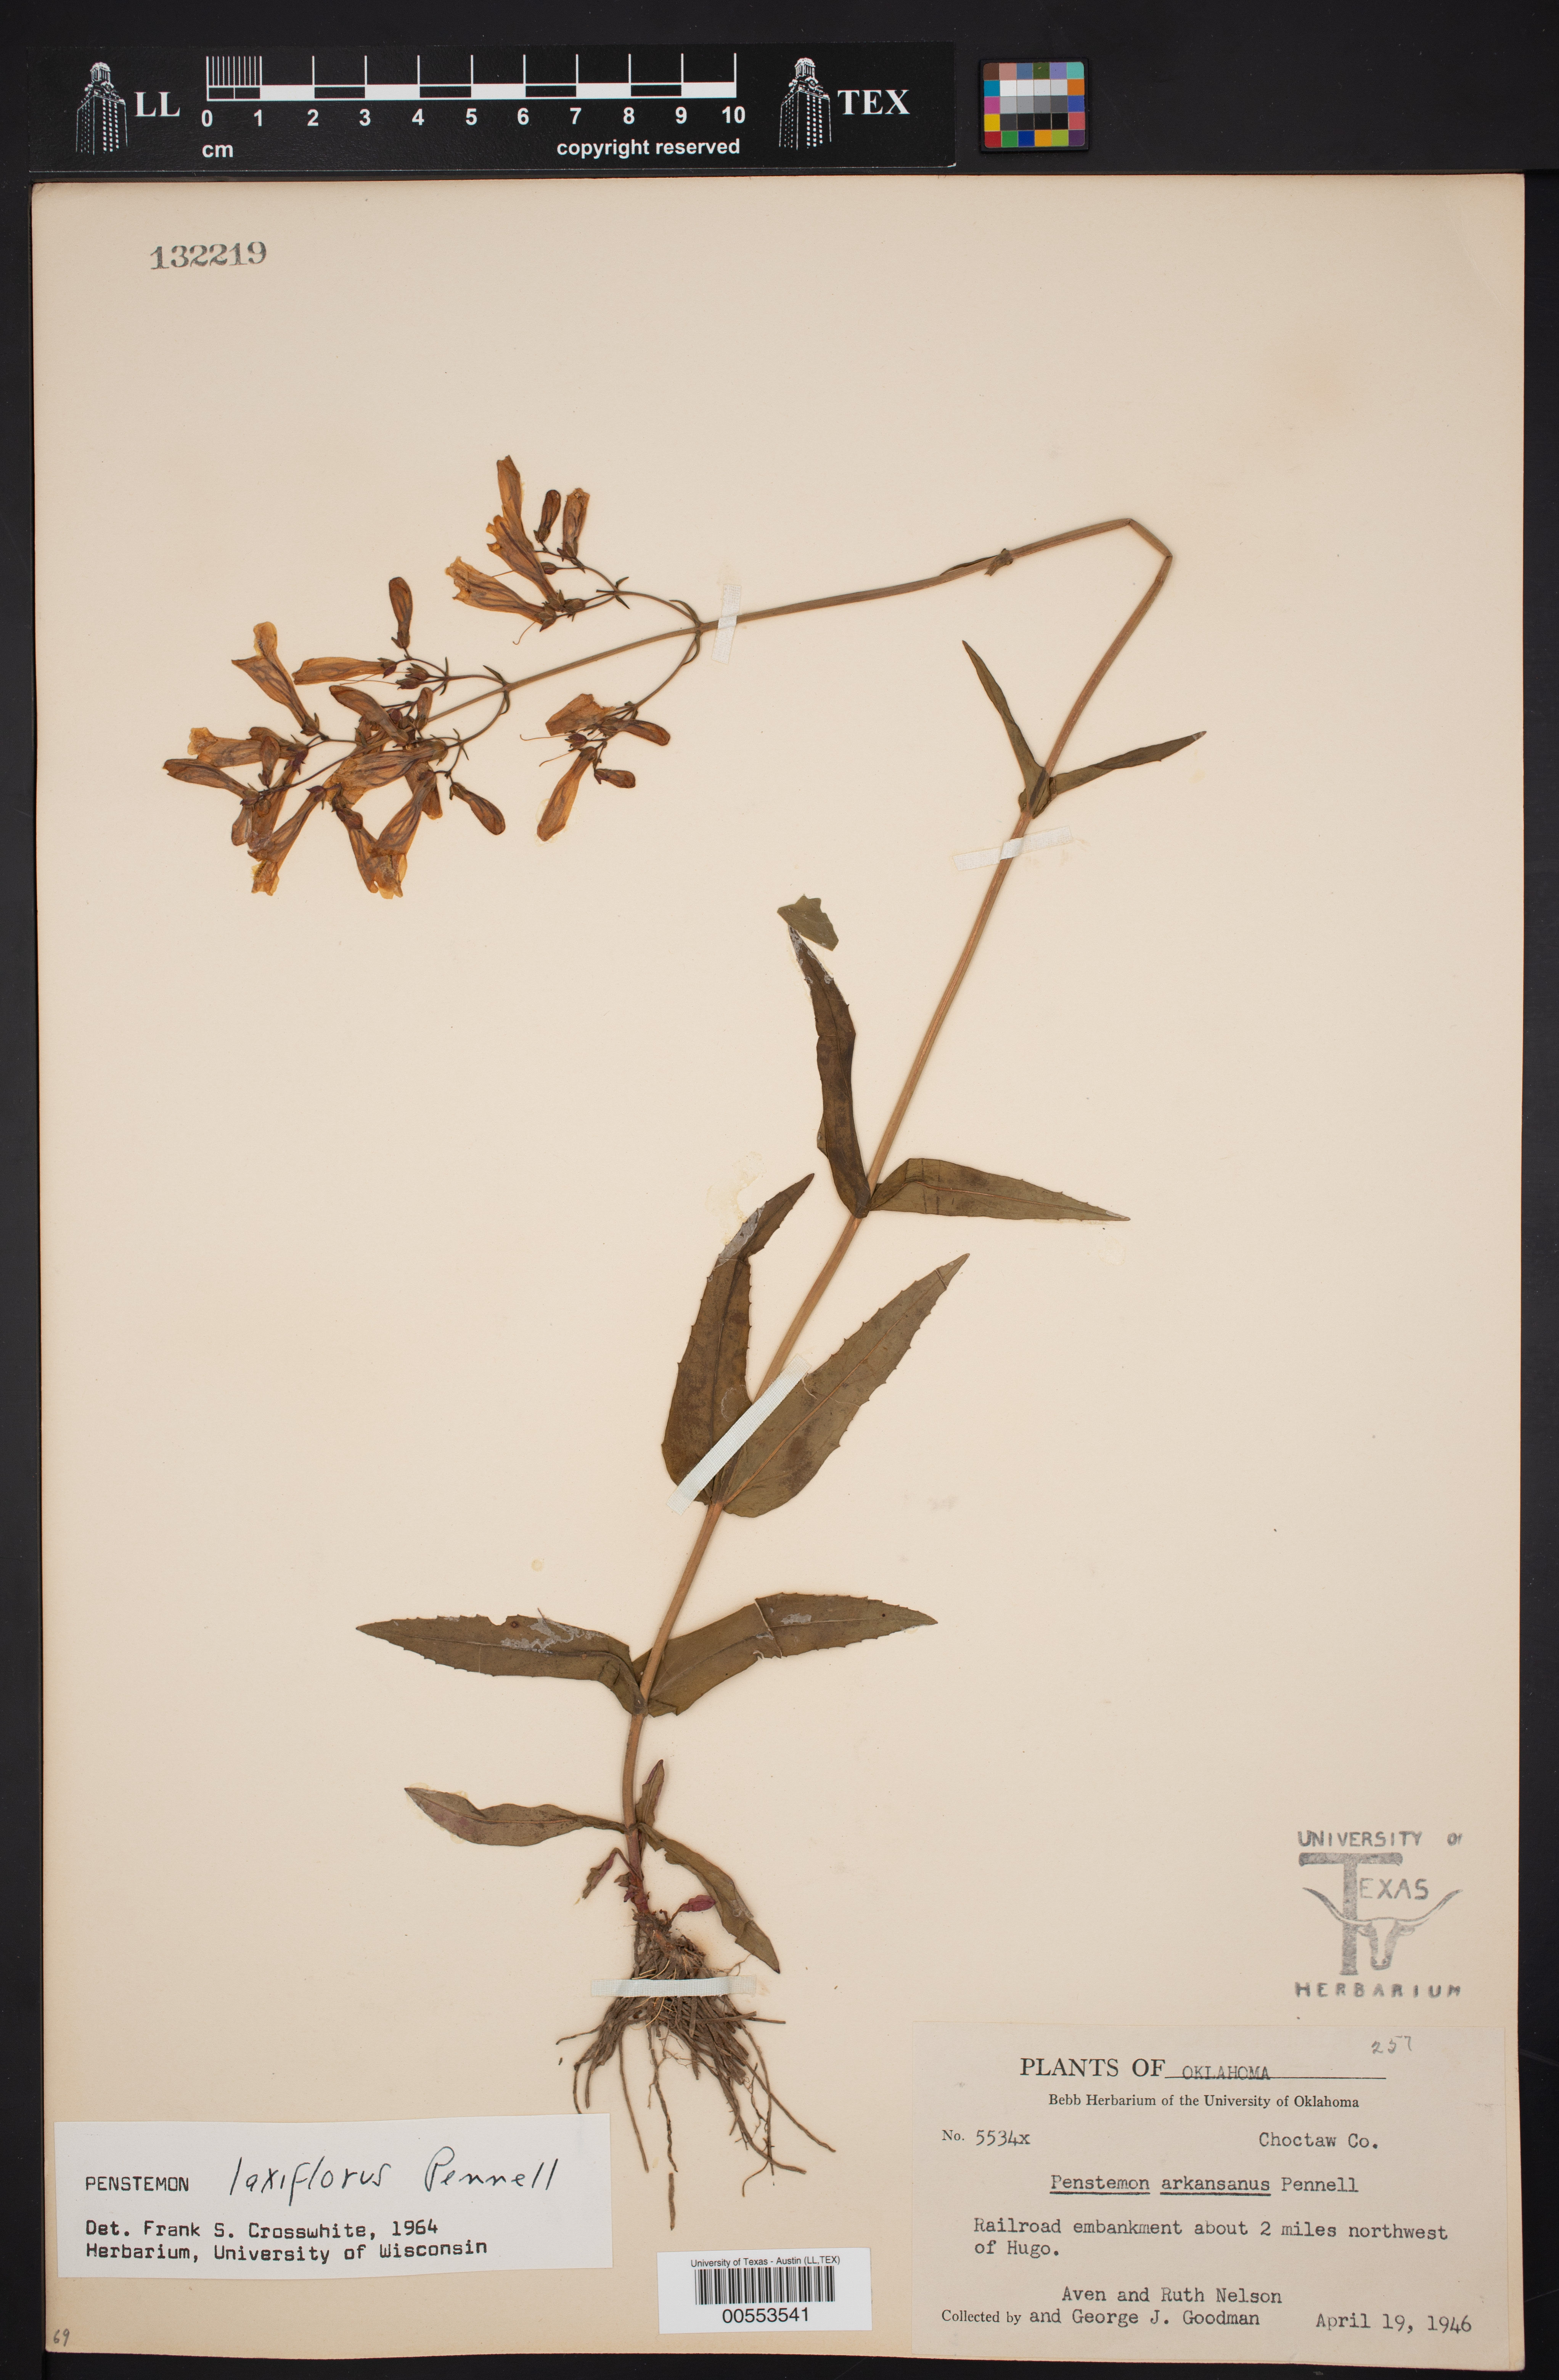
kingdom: Plantae
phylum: Tracheophyta
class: Magnoliopsida
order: Lamiales
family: Plantaginaceae
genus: Penstemon
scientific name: Penstemon laxiflorus
